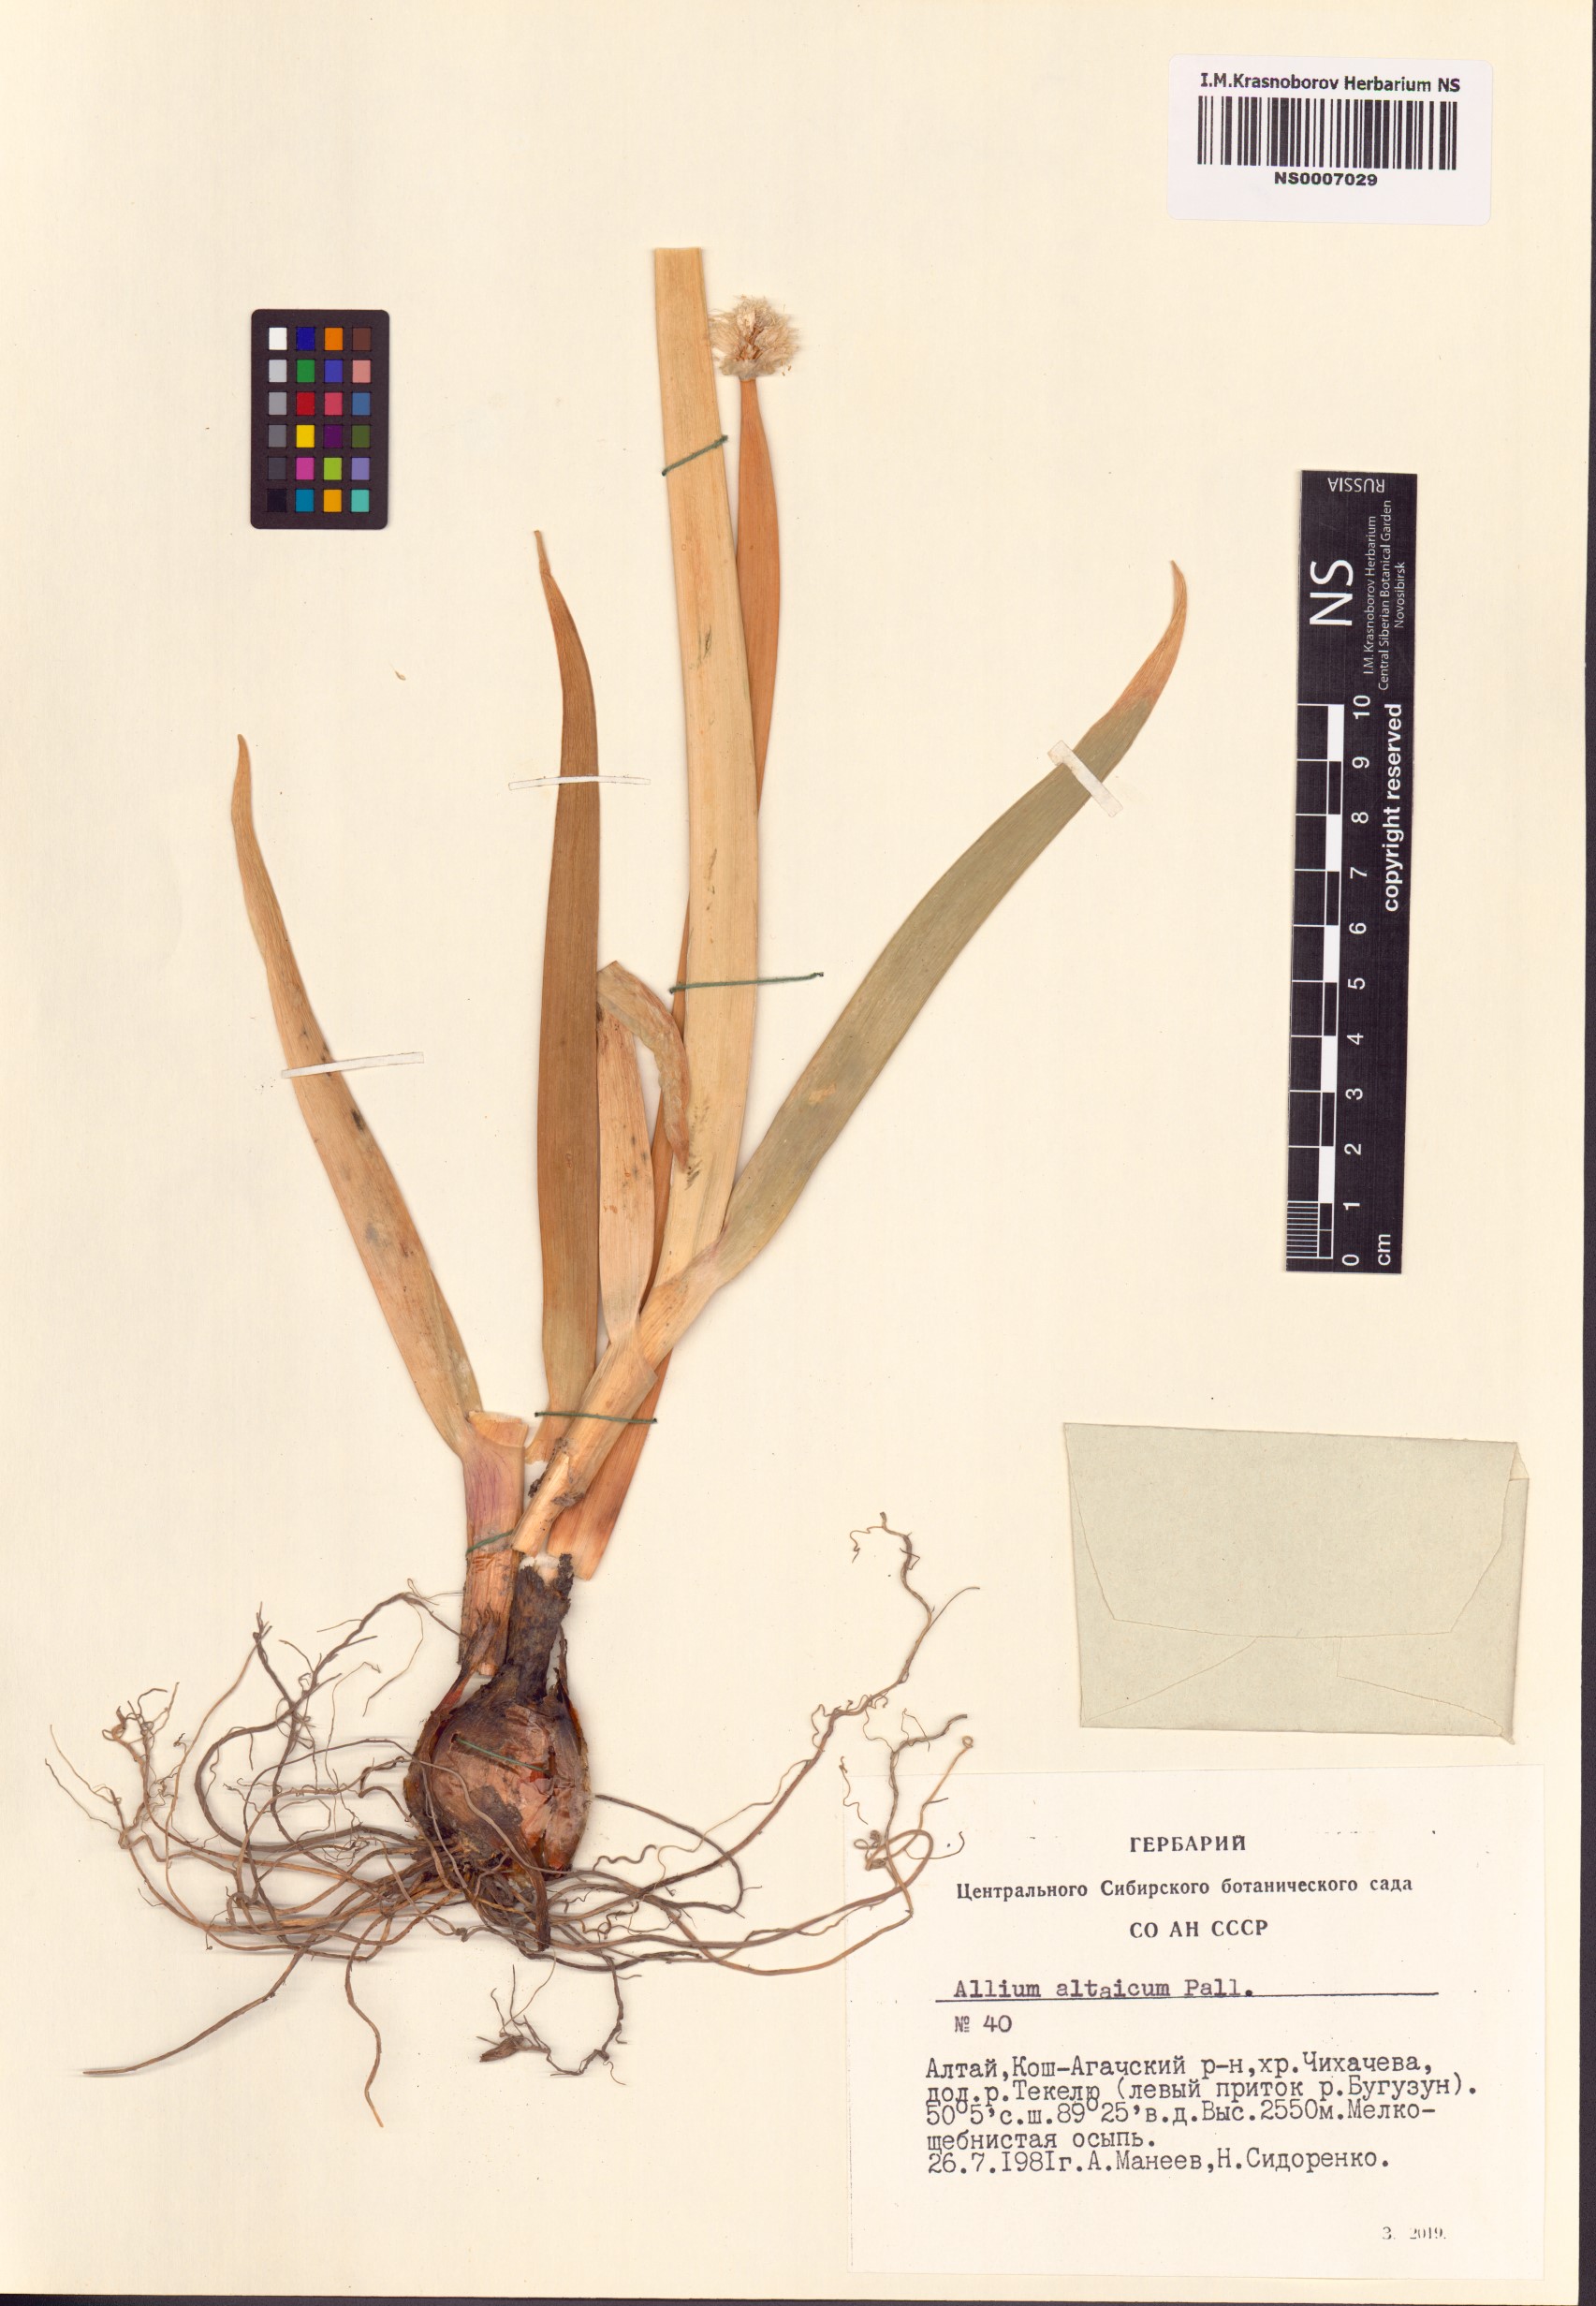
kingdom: Plantae
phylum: Tracheophyta
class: Liliopsida
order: Asparagales
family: Amaryllidaceae
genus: Allium
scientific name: Allium altaicum
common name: Altai onion
